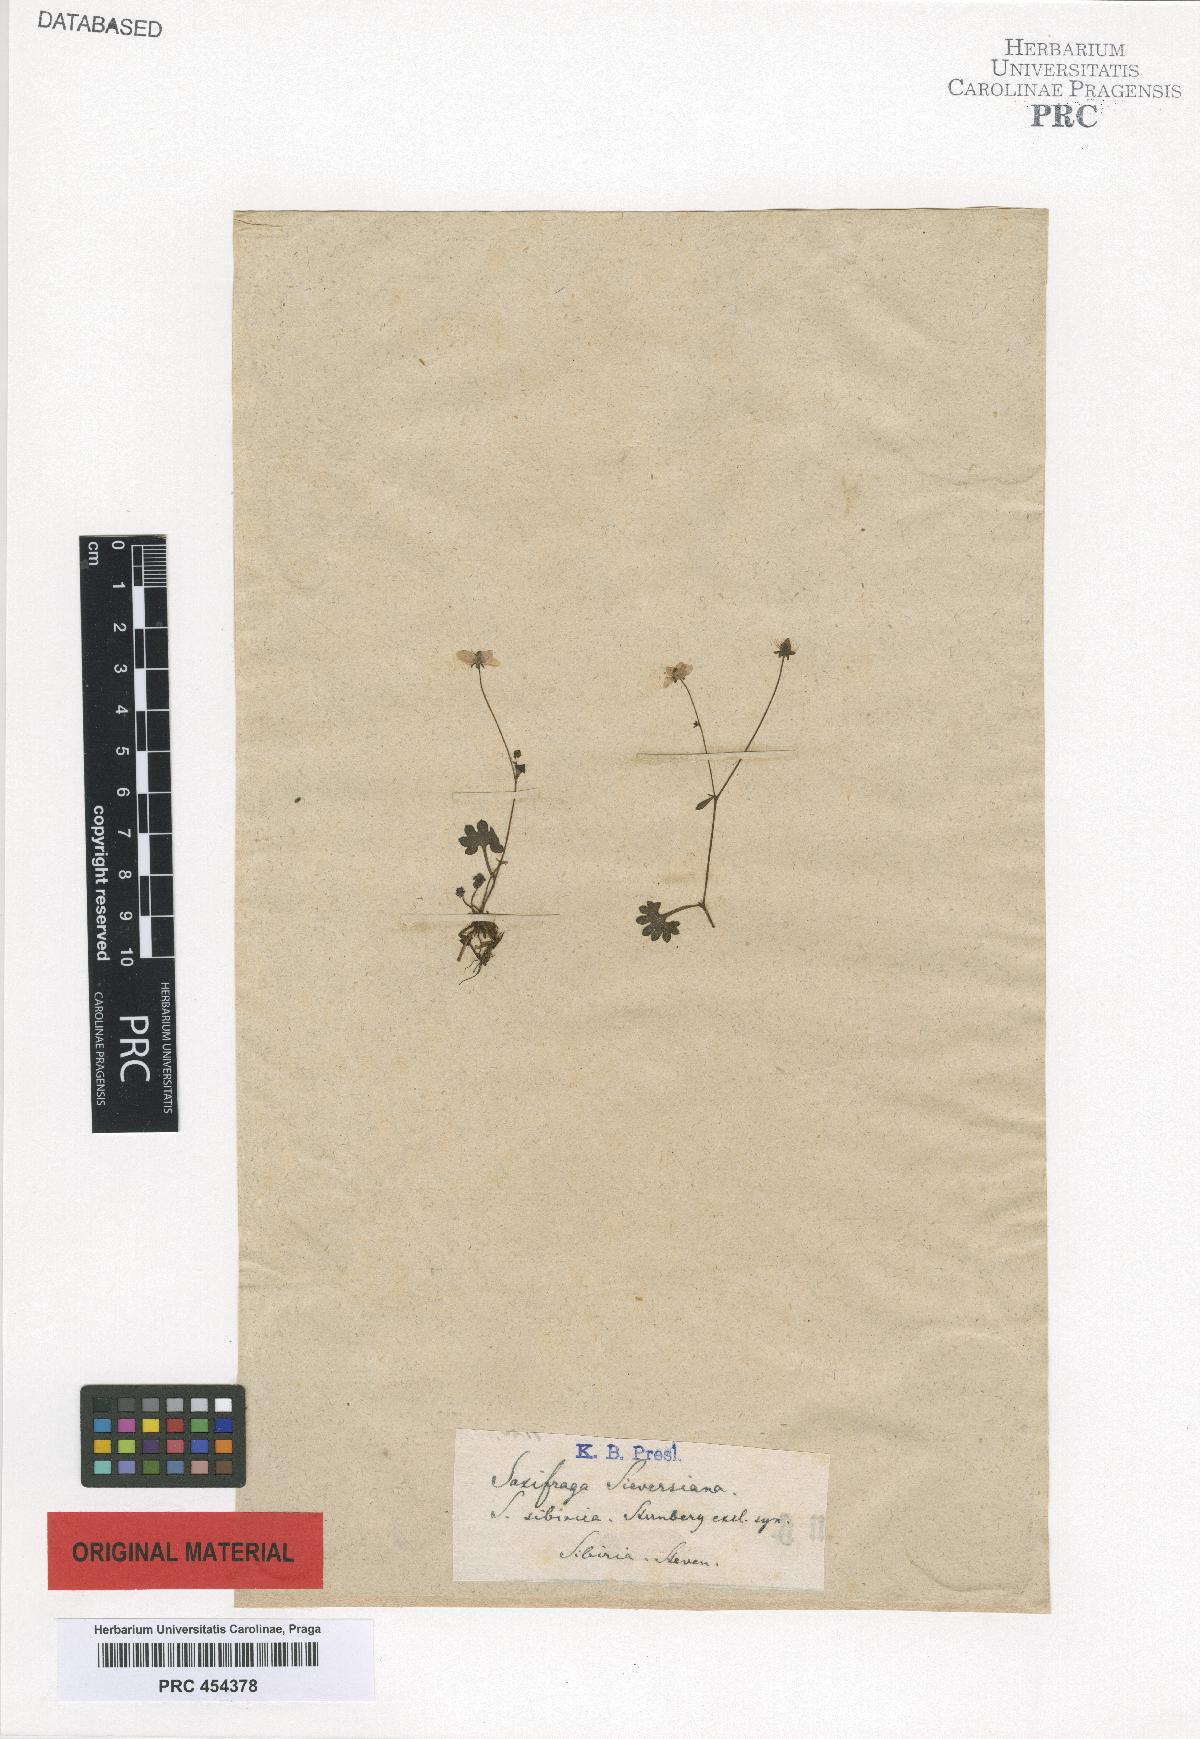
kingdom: Plantae
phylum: Tracheophyta
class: Magnoliopsida
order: Saxifragales
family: Saxifragaceae
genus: Saxifraga
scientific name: Saxifraga sieversiana
